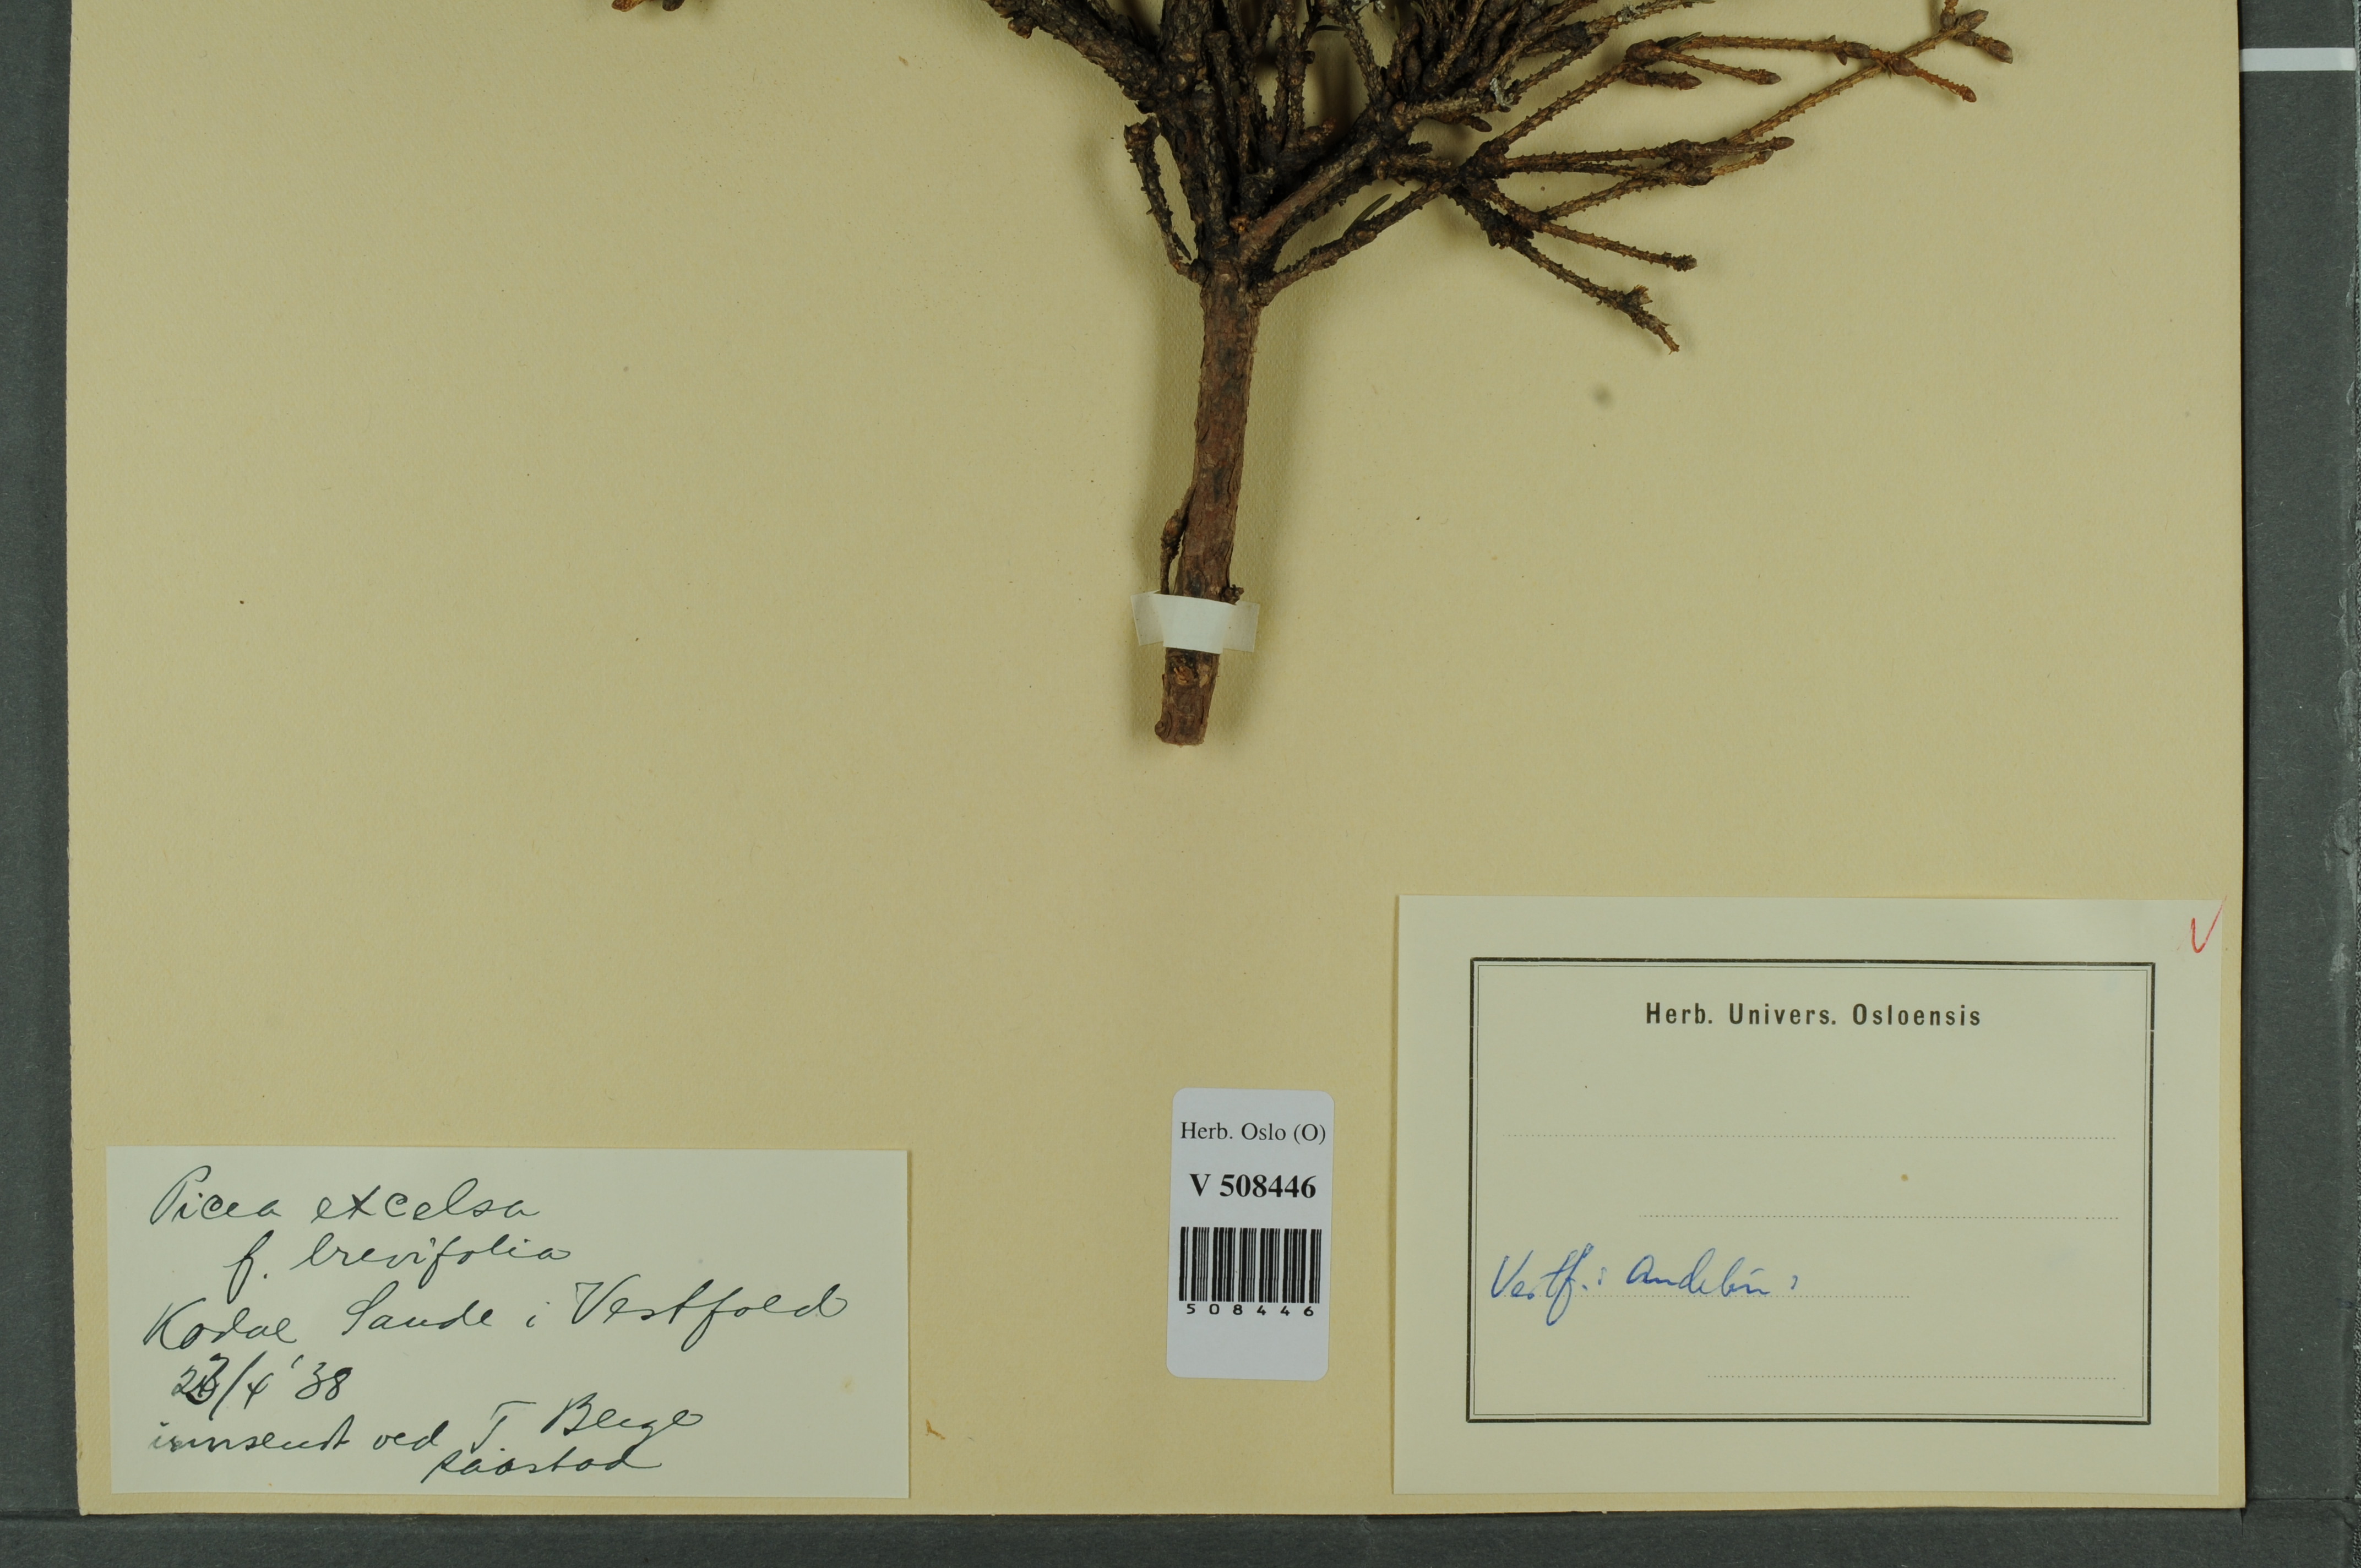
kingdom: Plantae
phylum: Tracheophyta
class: Pinopsida
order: Pinales
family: Pinaceae
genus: Picea
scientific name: Picea abies
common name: Norway spruce
